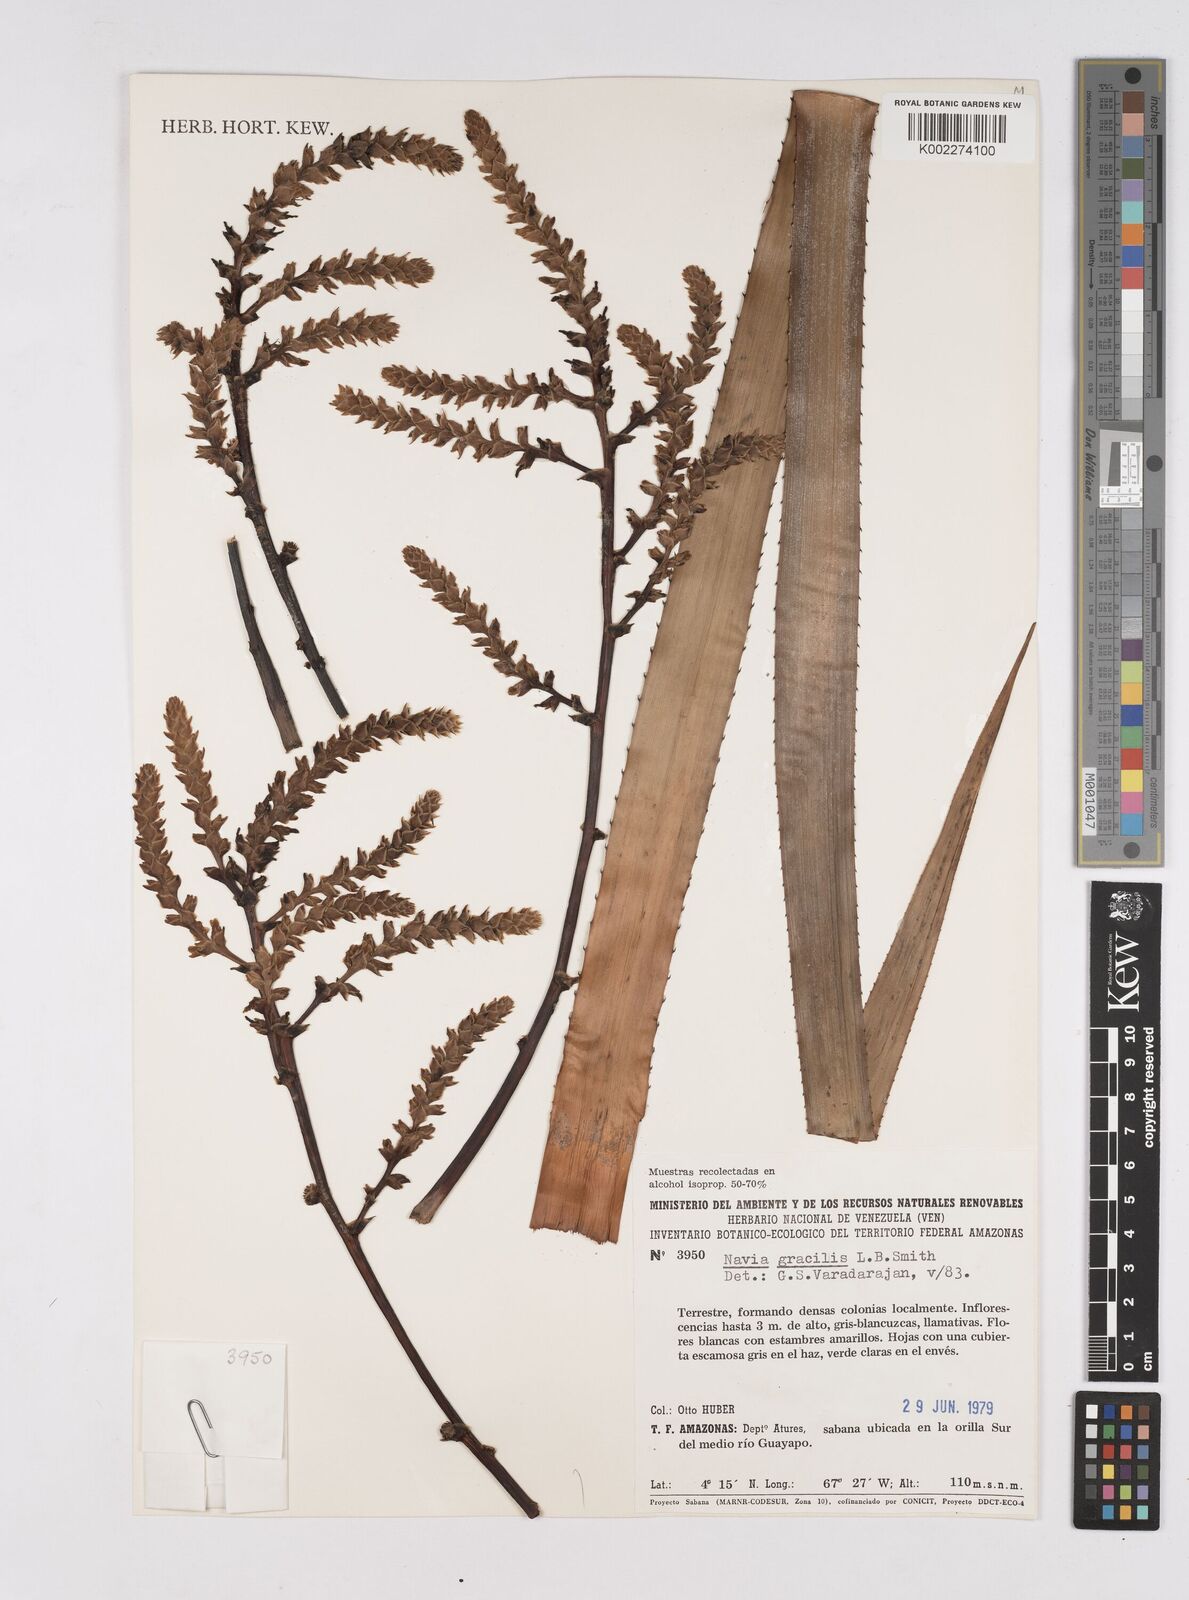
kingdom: Plantae
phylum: Tracheophyta
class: Liliopsida
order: Poales
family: Bromeliaceae
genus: Navia
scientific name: Navia reflexa
